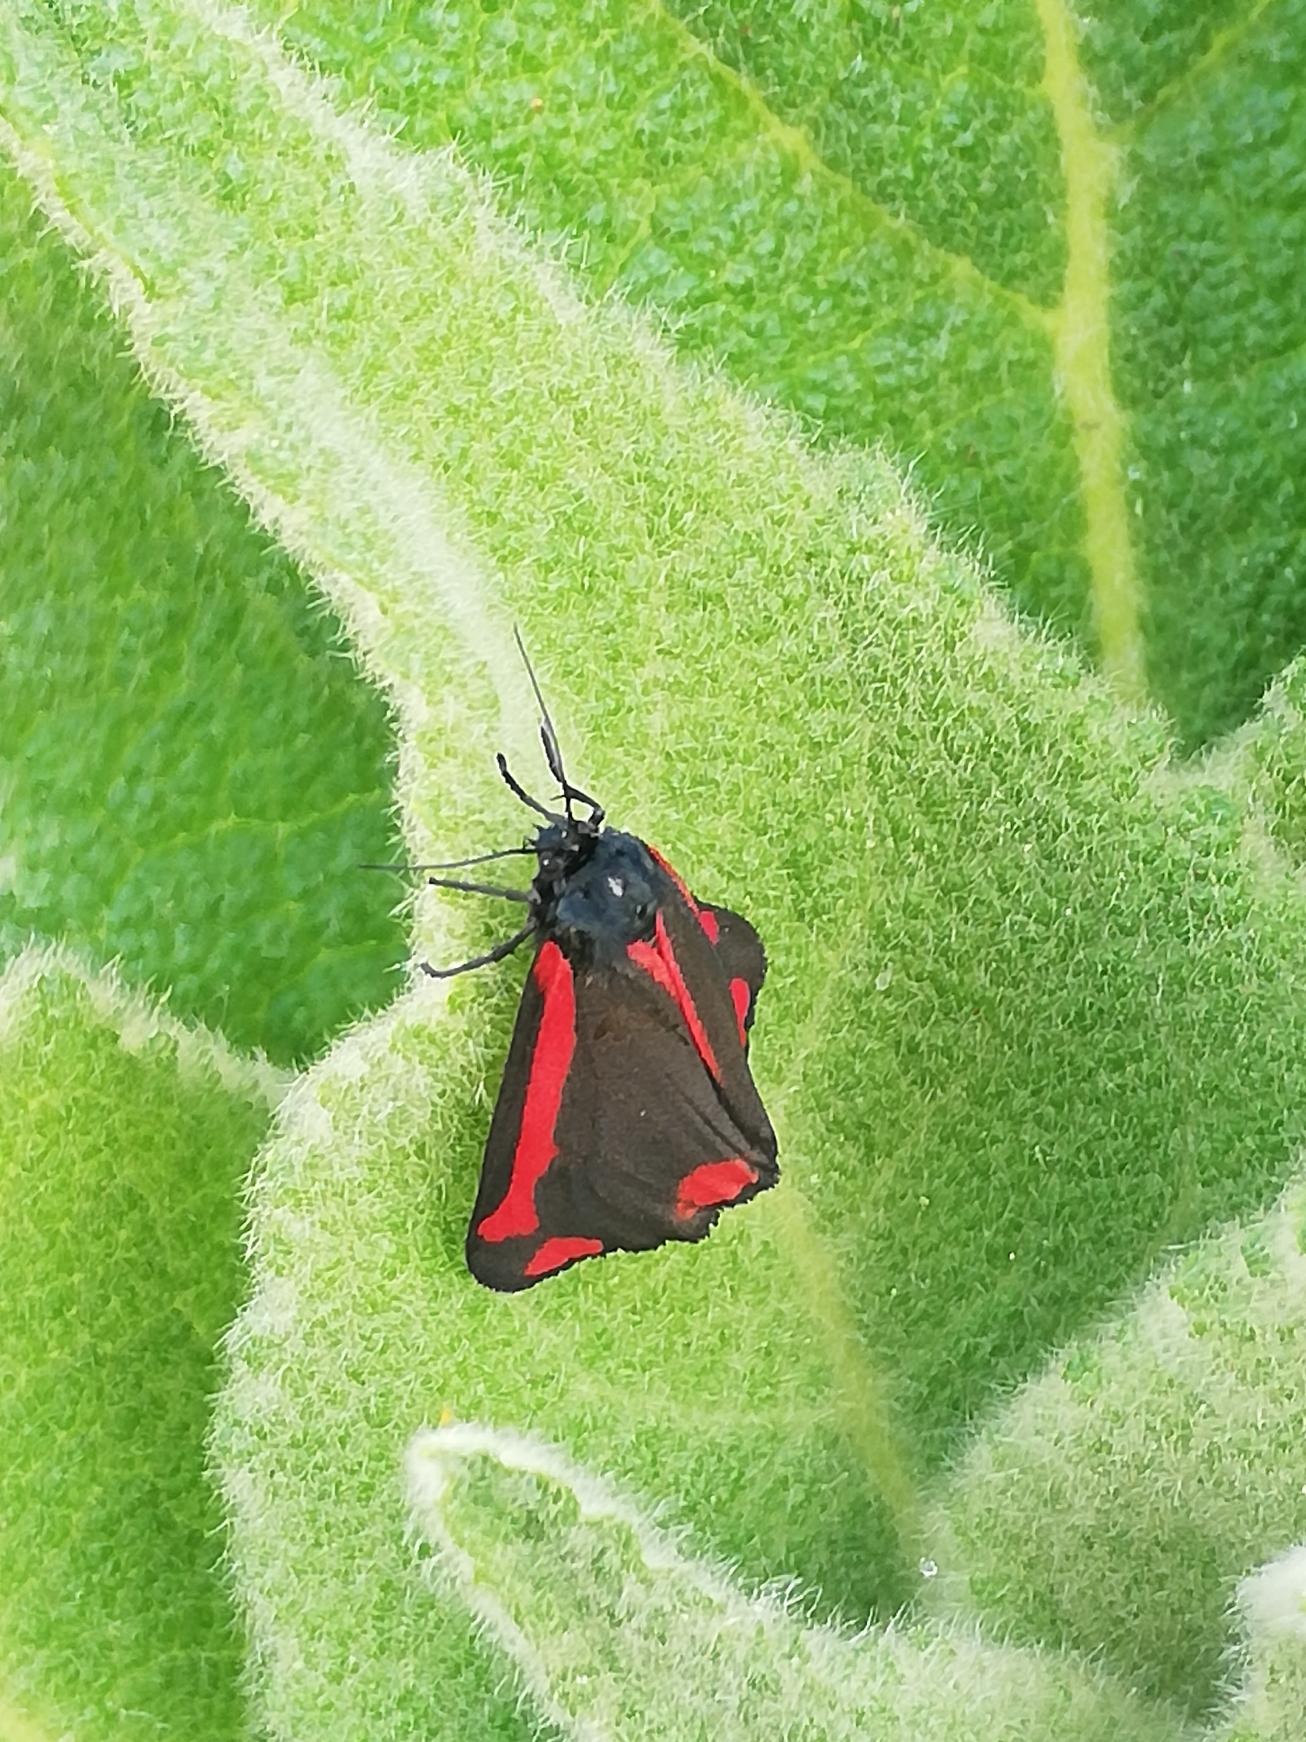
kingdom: Animalia
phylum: Arthropoda
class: Insecta
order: Lepidoptera
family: Erebidae
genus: Tyria
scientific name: Tyria jacobaeae
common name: Blodplet
